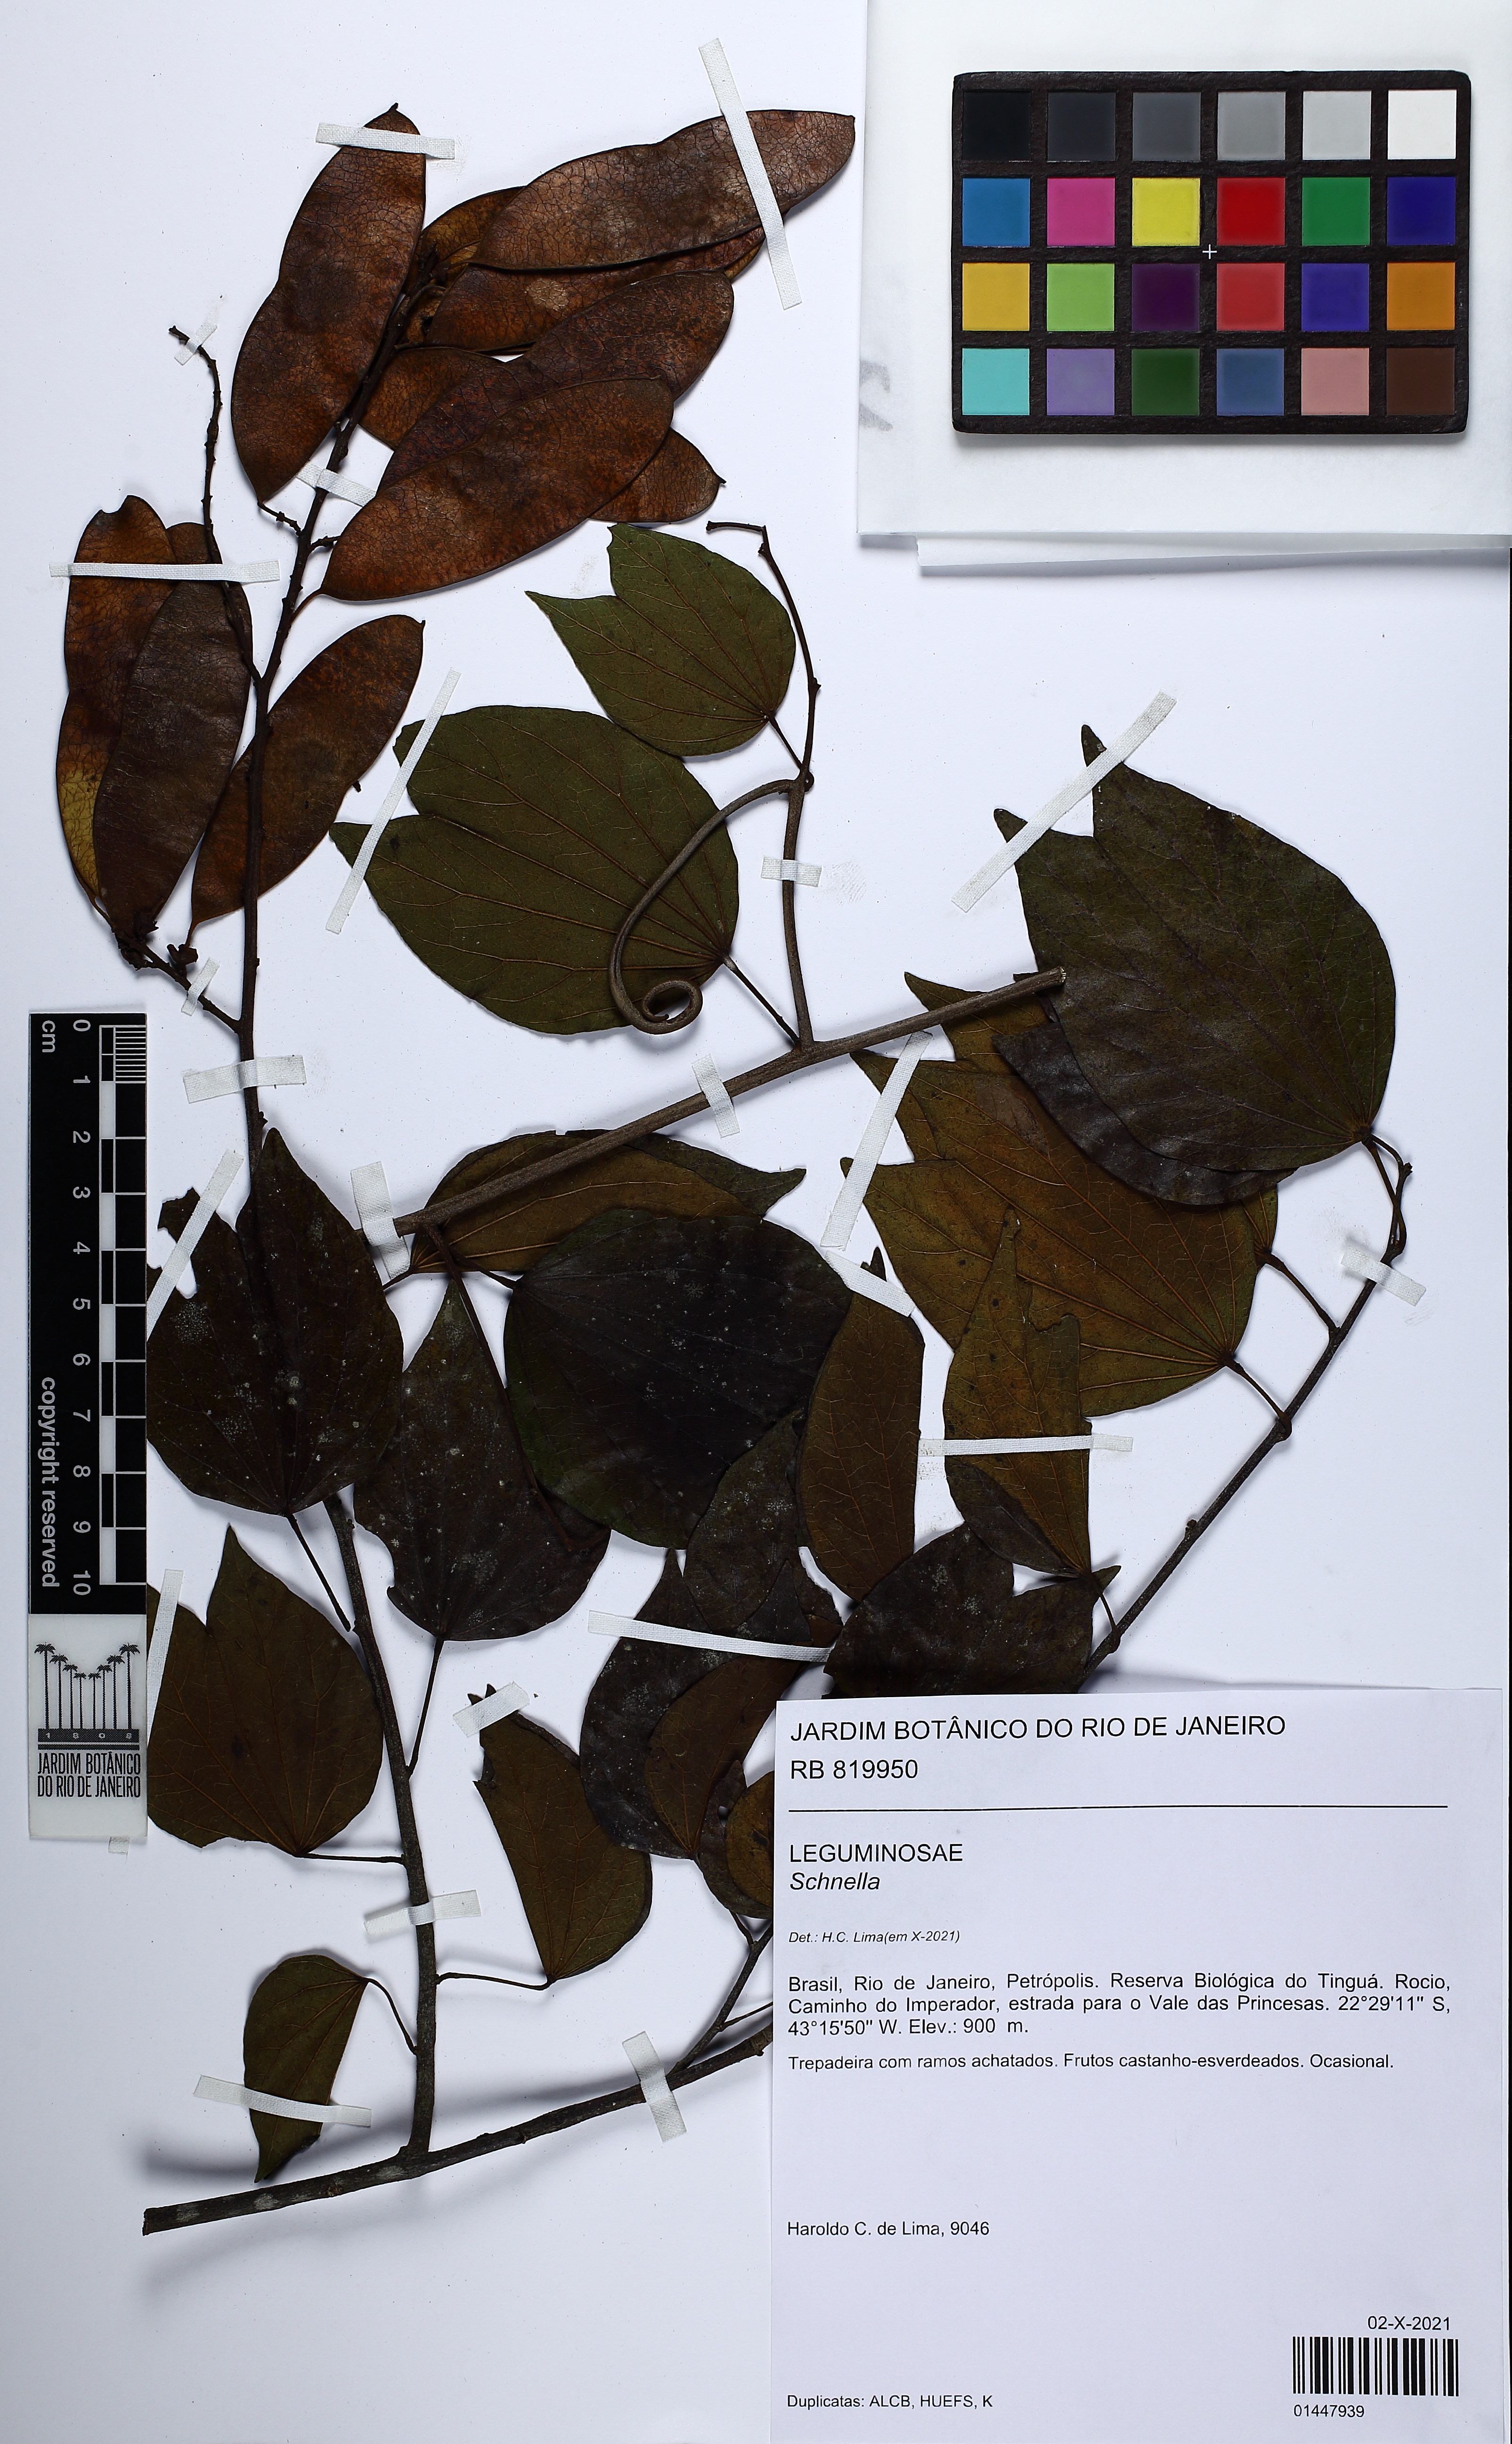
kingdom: Plantae
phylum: Tracheophyta
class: Magnoliopsida
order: Fabales
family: Fabaceae
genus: Schnella
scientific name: Schnella
